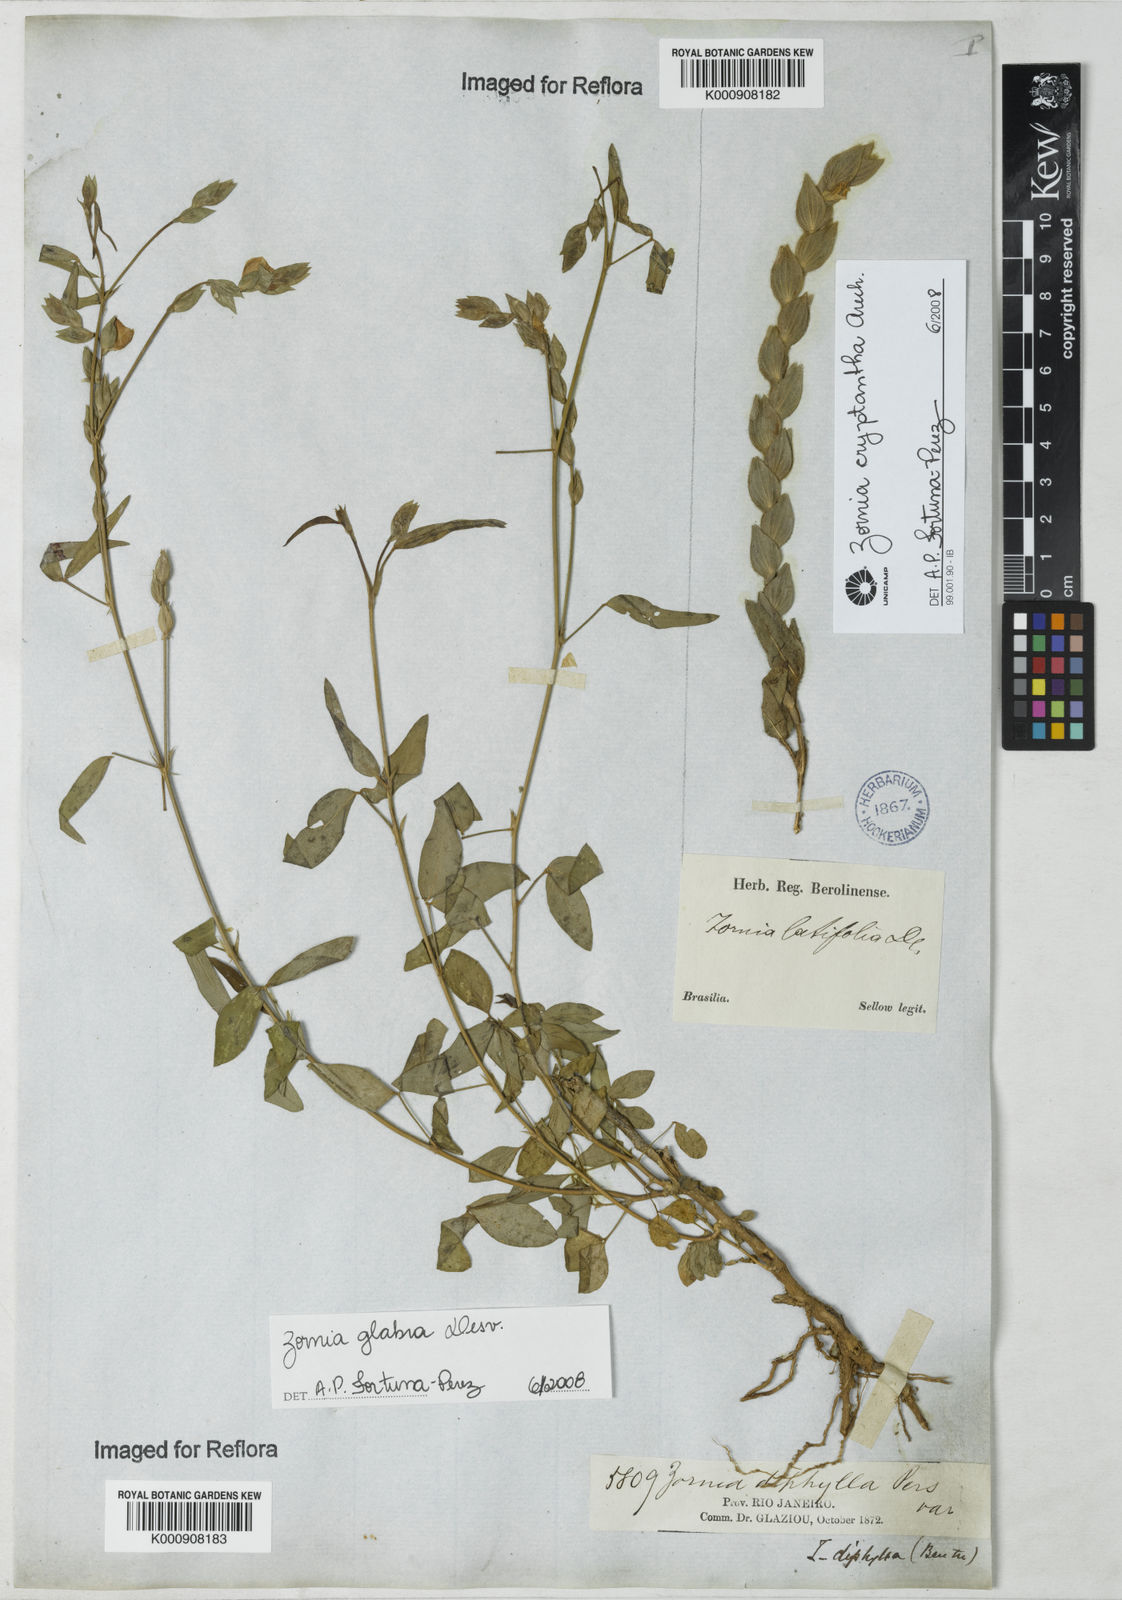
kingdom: Plantae
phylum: Tracheophyta
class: Magnoliopsida
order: Fabales
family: Fabaceae
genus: Zornia
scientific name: Zornia glabra
